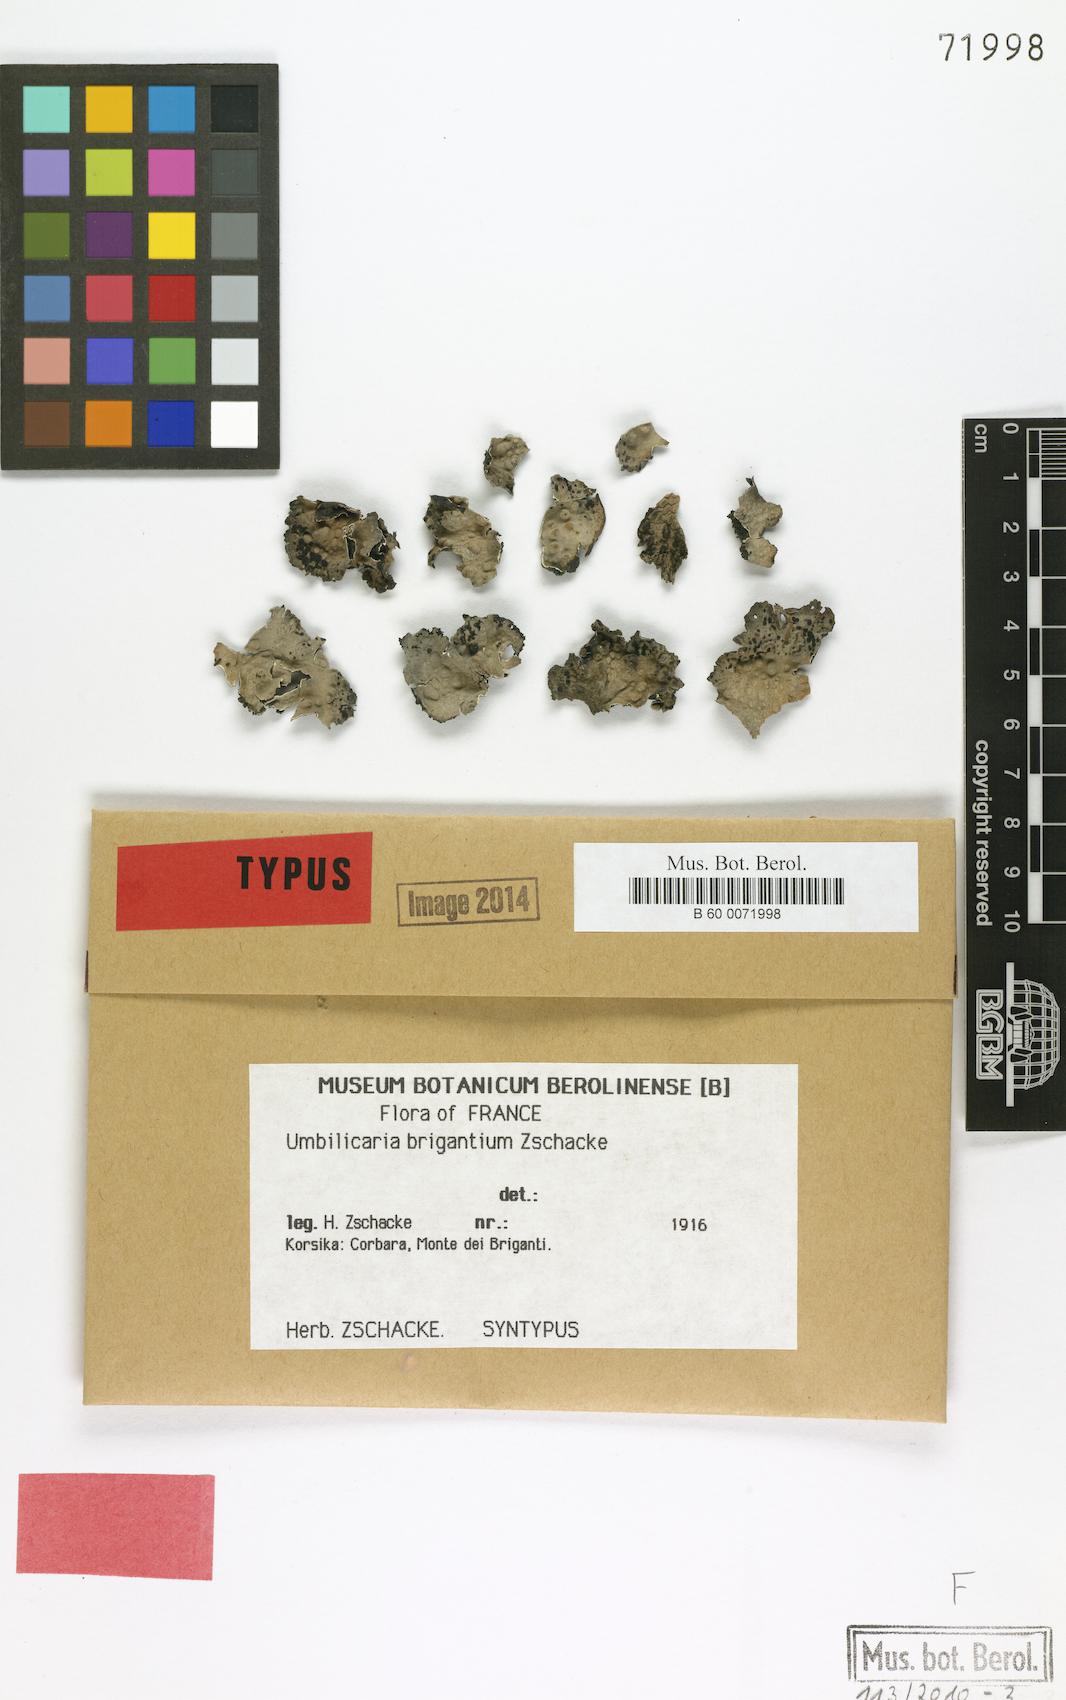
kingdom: Fungi
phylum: Ascomycota
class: Lecanoromycetes
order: Umbilicariales
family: Umbilicariaceae
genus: Lasallia
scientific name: Lasallia brigantium
